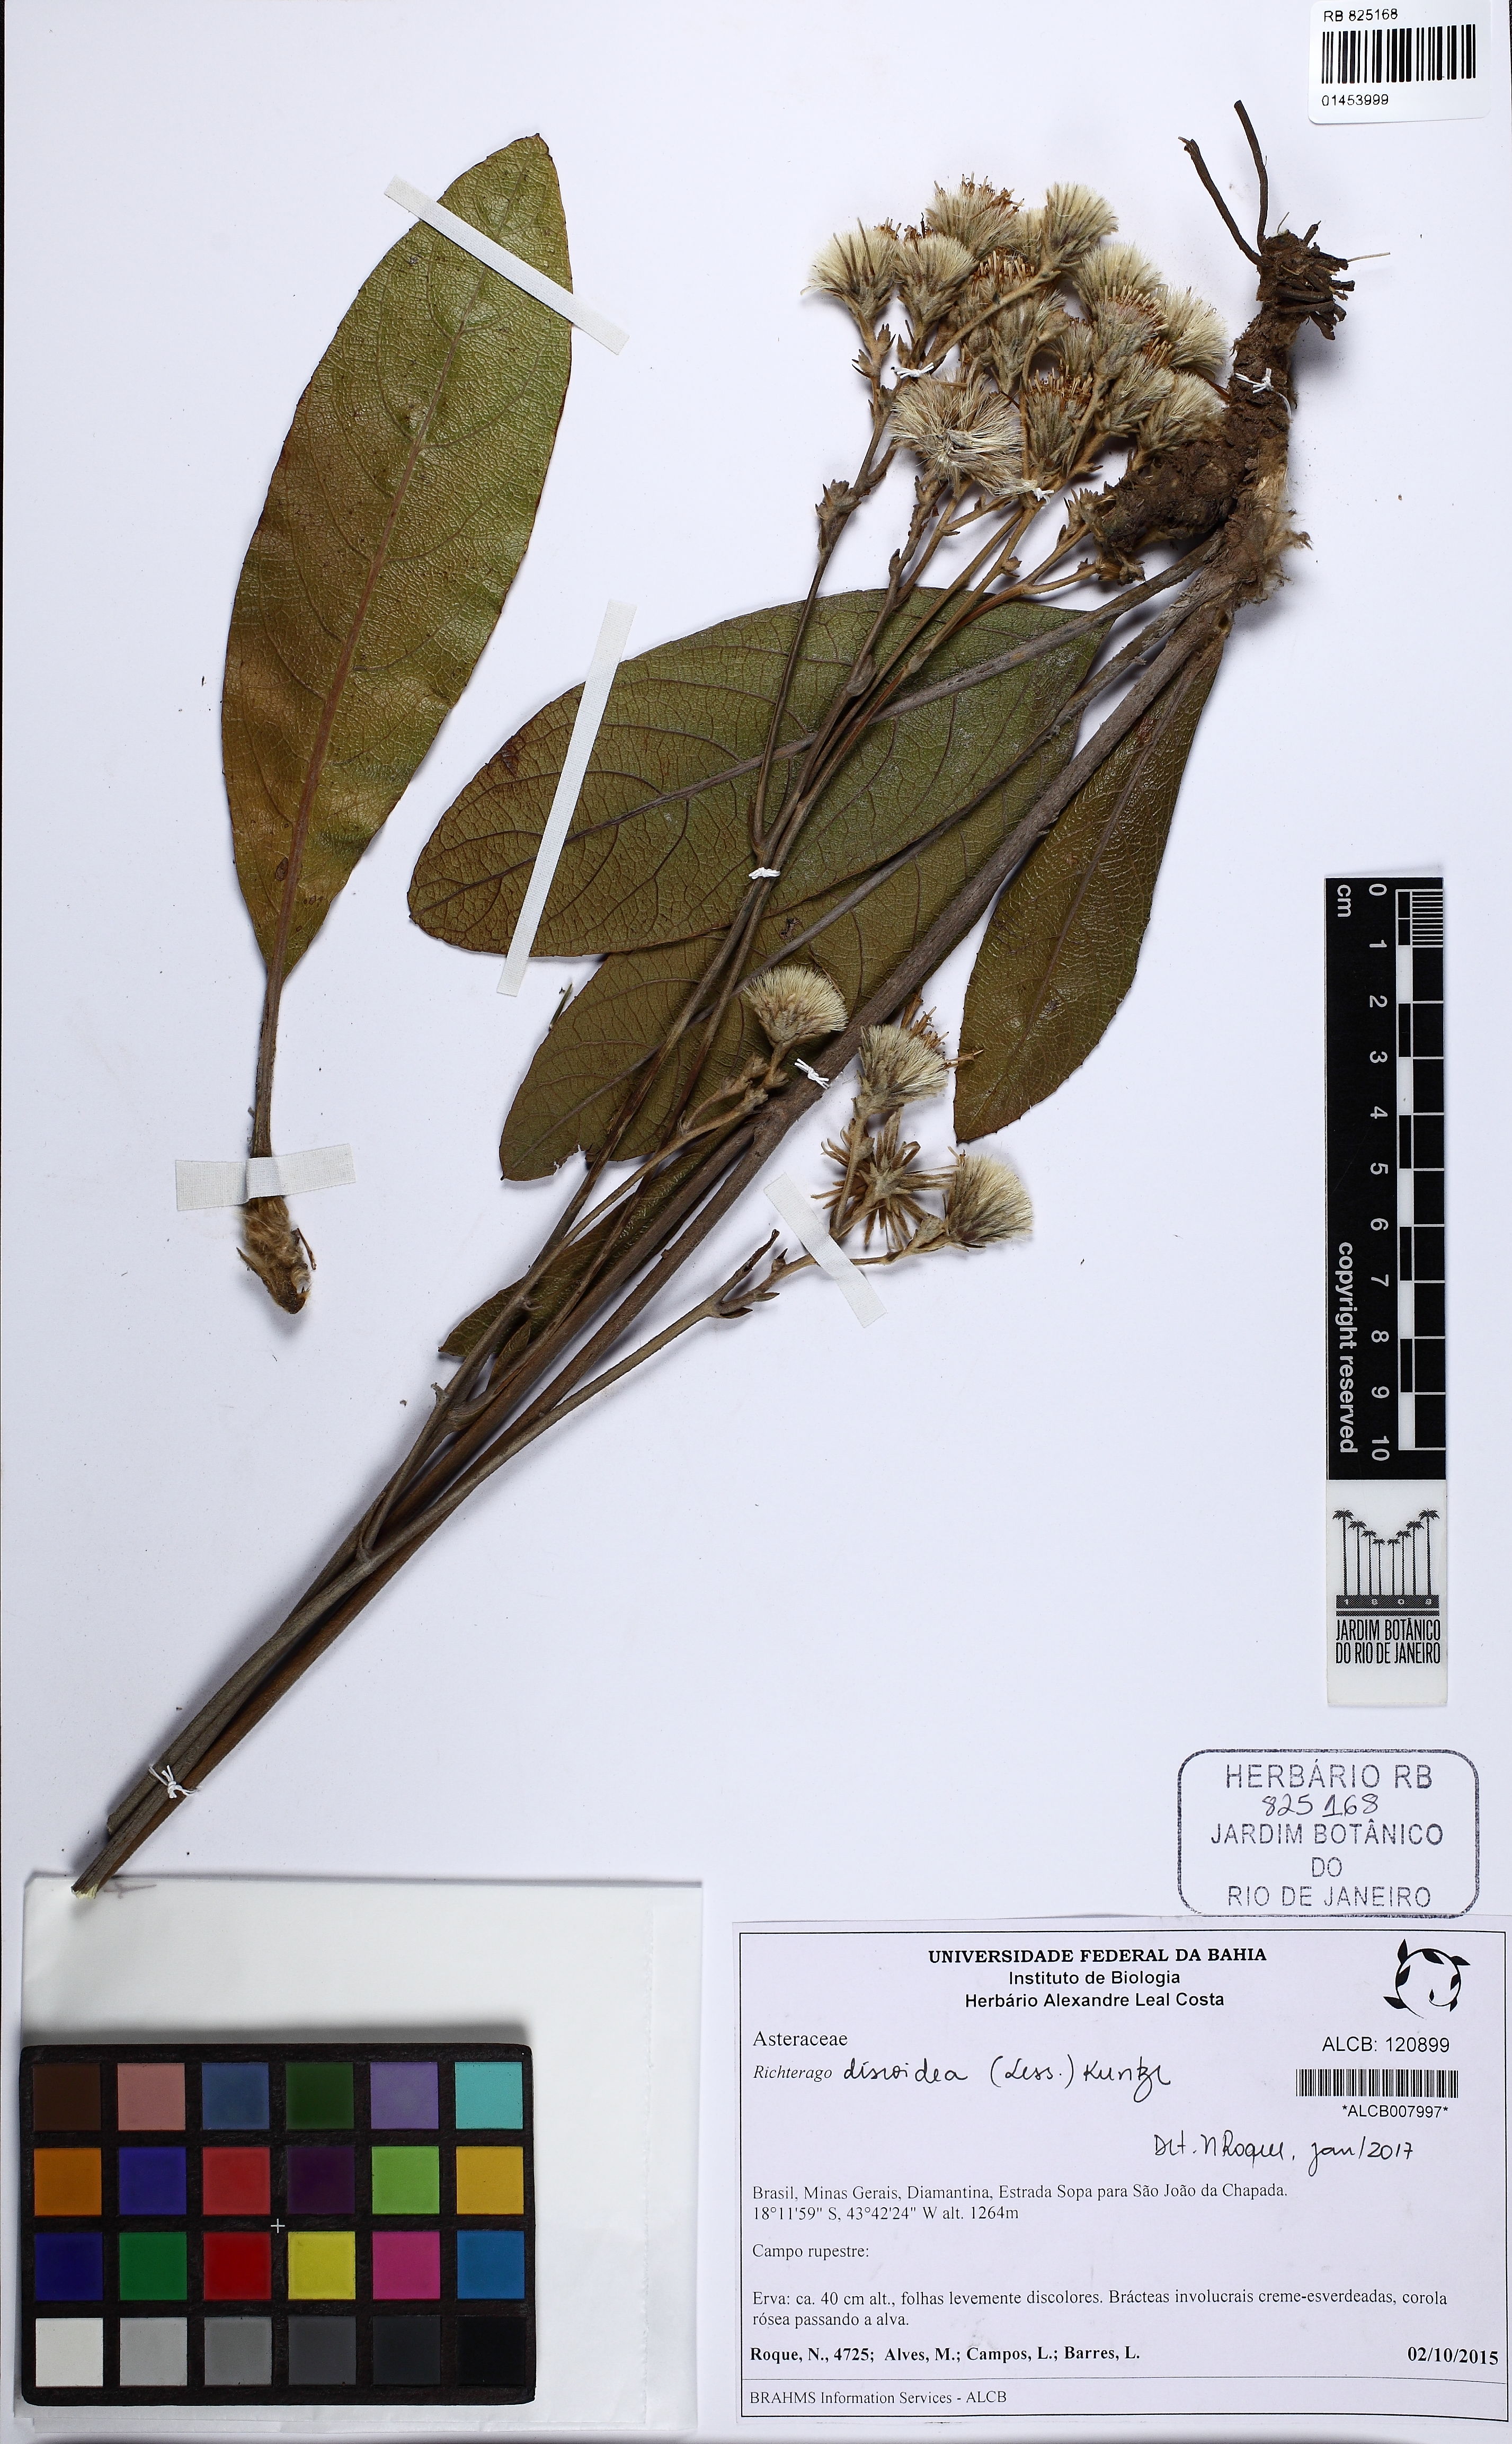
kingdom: Plantae
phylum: Tracheophyta
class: Magnoliopsida
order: Asterales
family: Asteraceae
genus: Richterago
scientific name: Richterago discoidea
